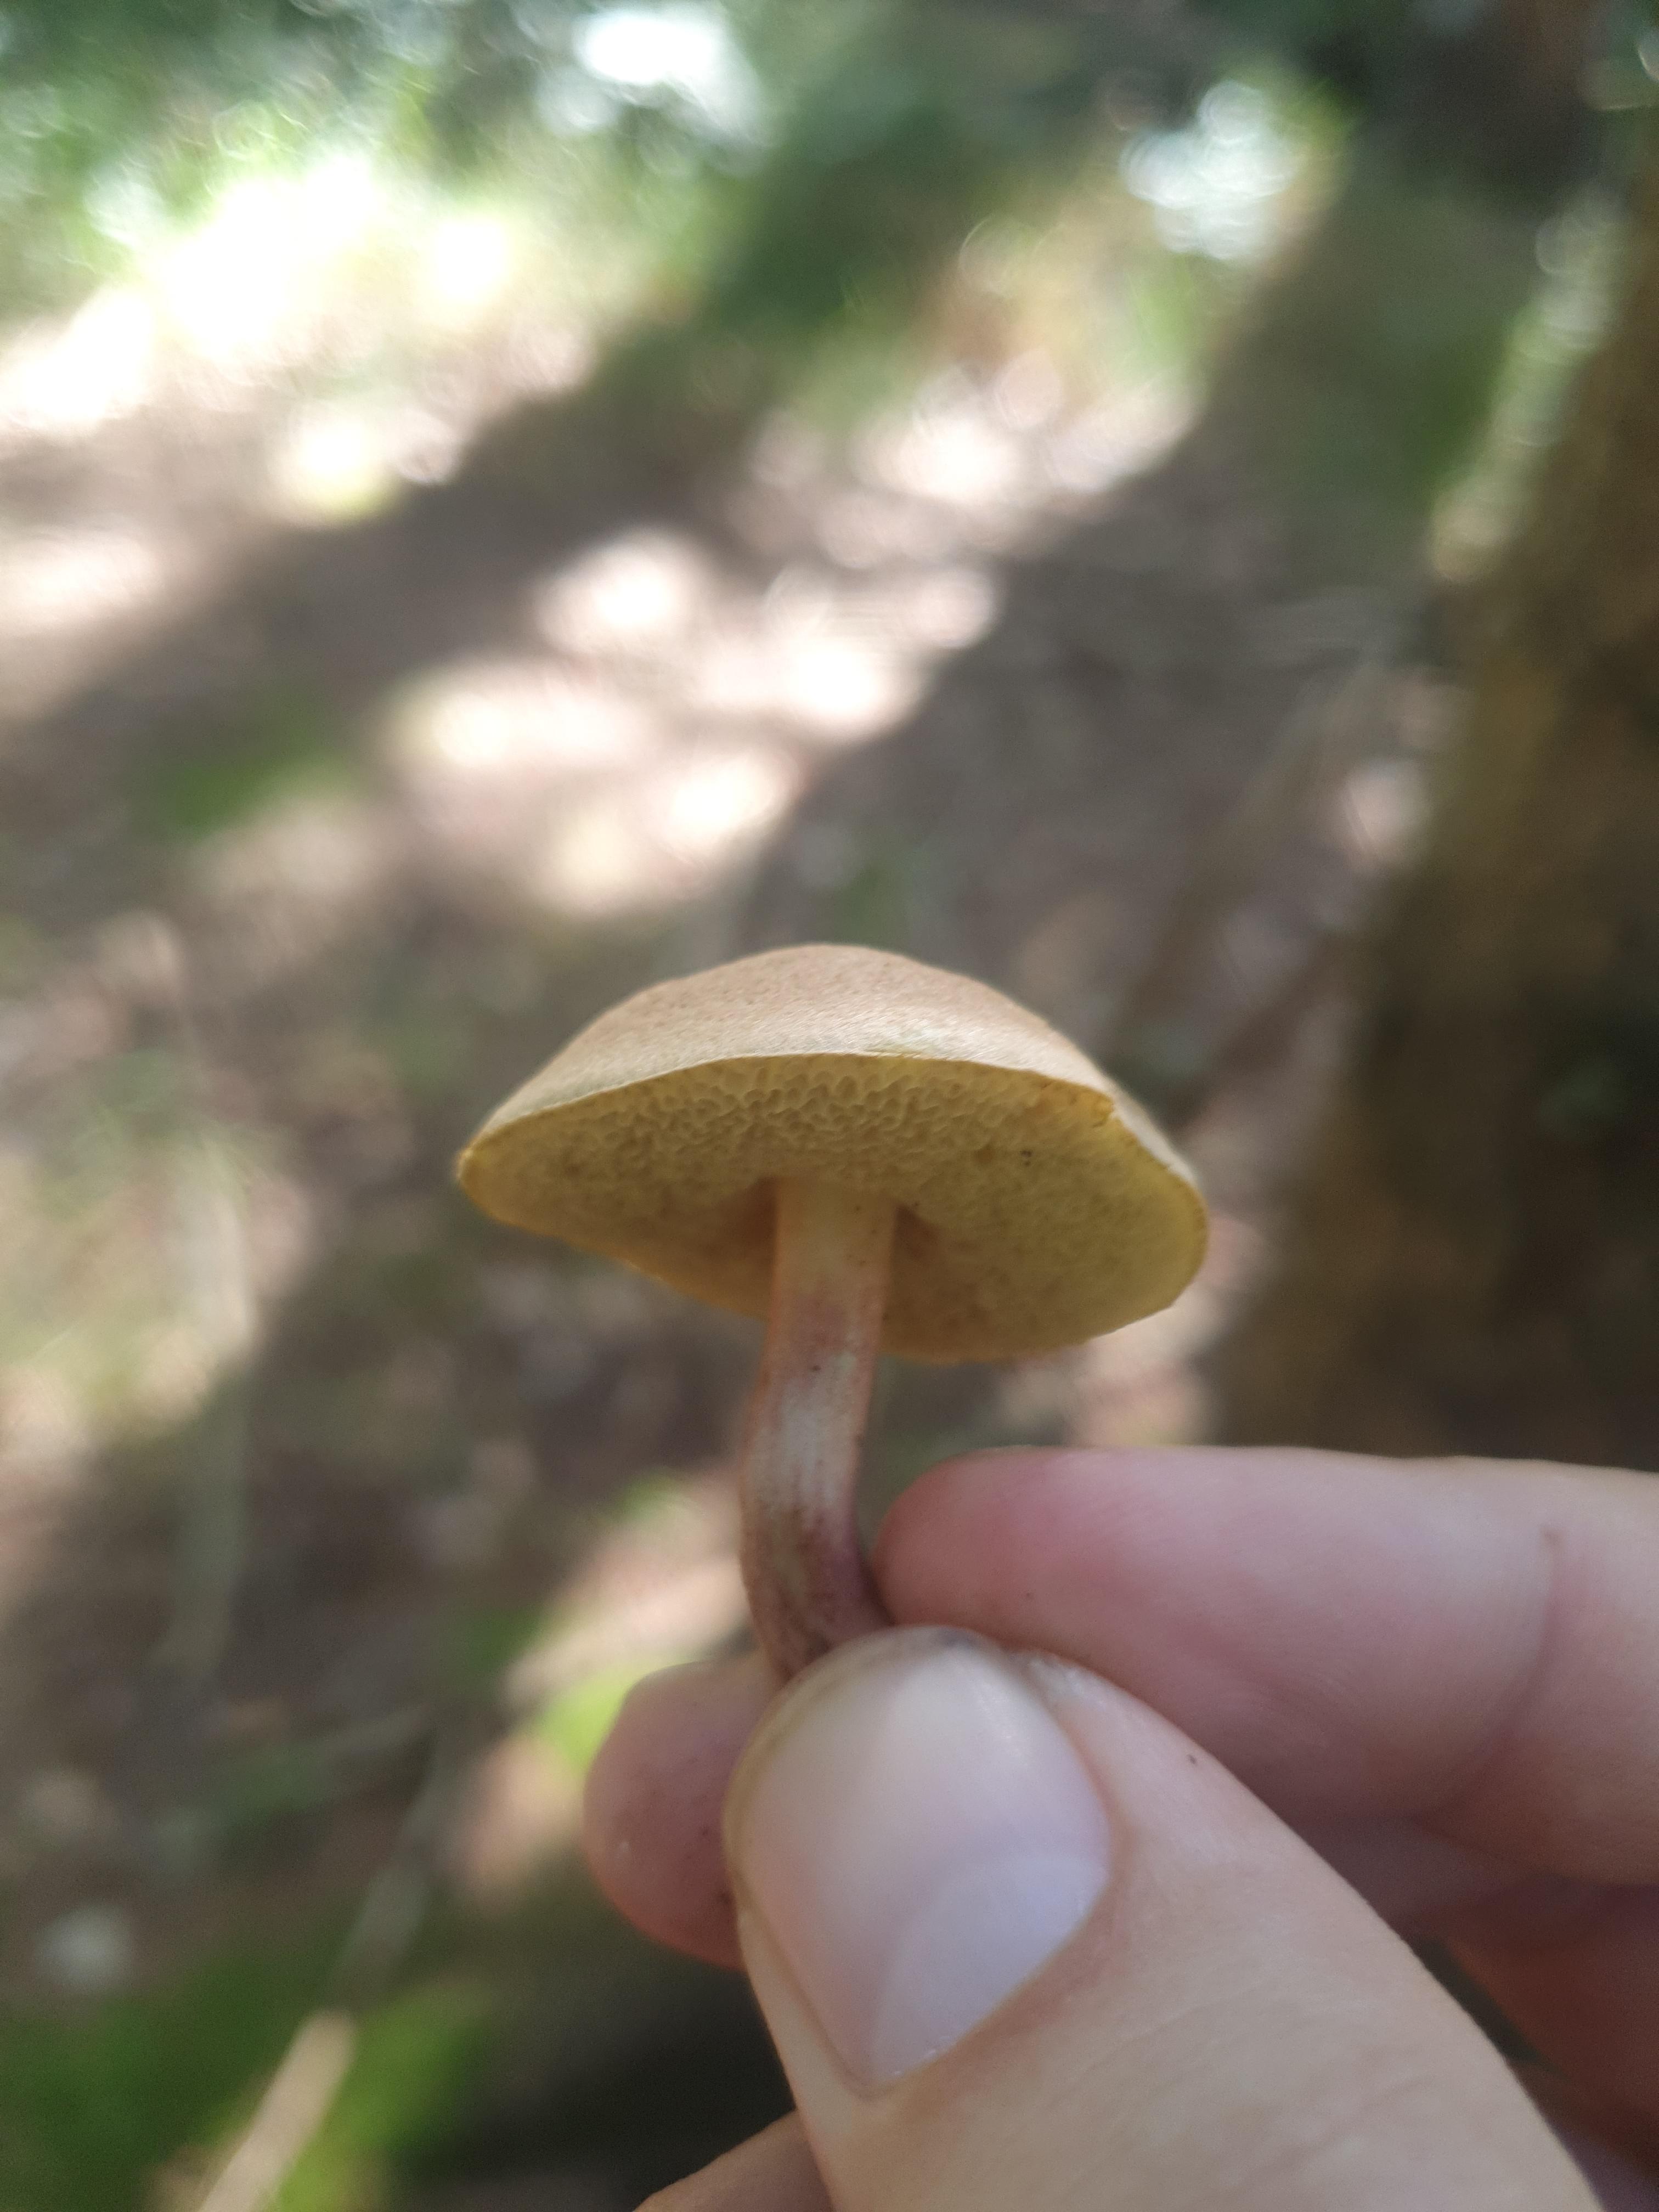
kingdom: Fungi
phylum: Basidiomycota
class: Agaricomycetes
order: Boletales
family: Boletaceae
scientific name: Boletaceae
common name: rørhatfamilien
